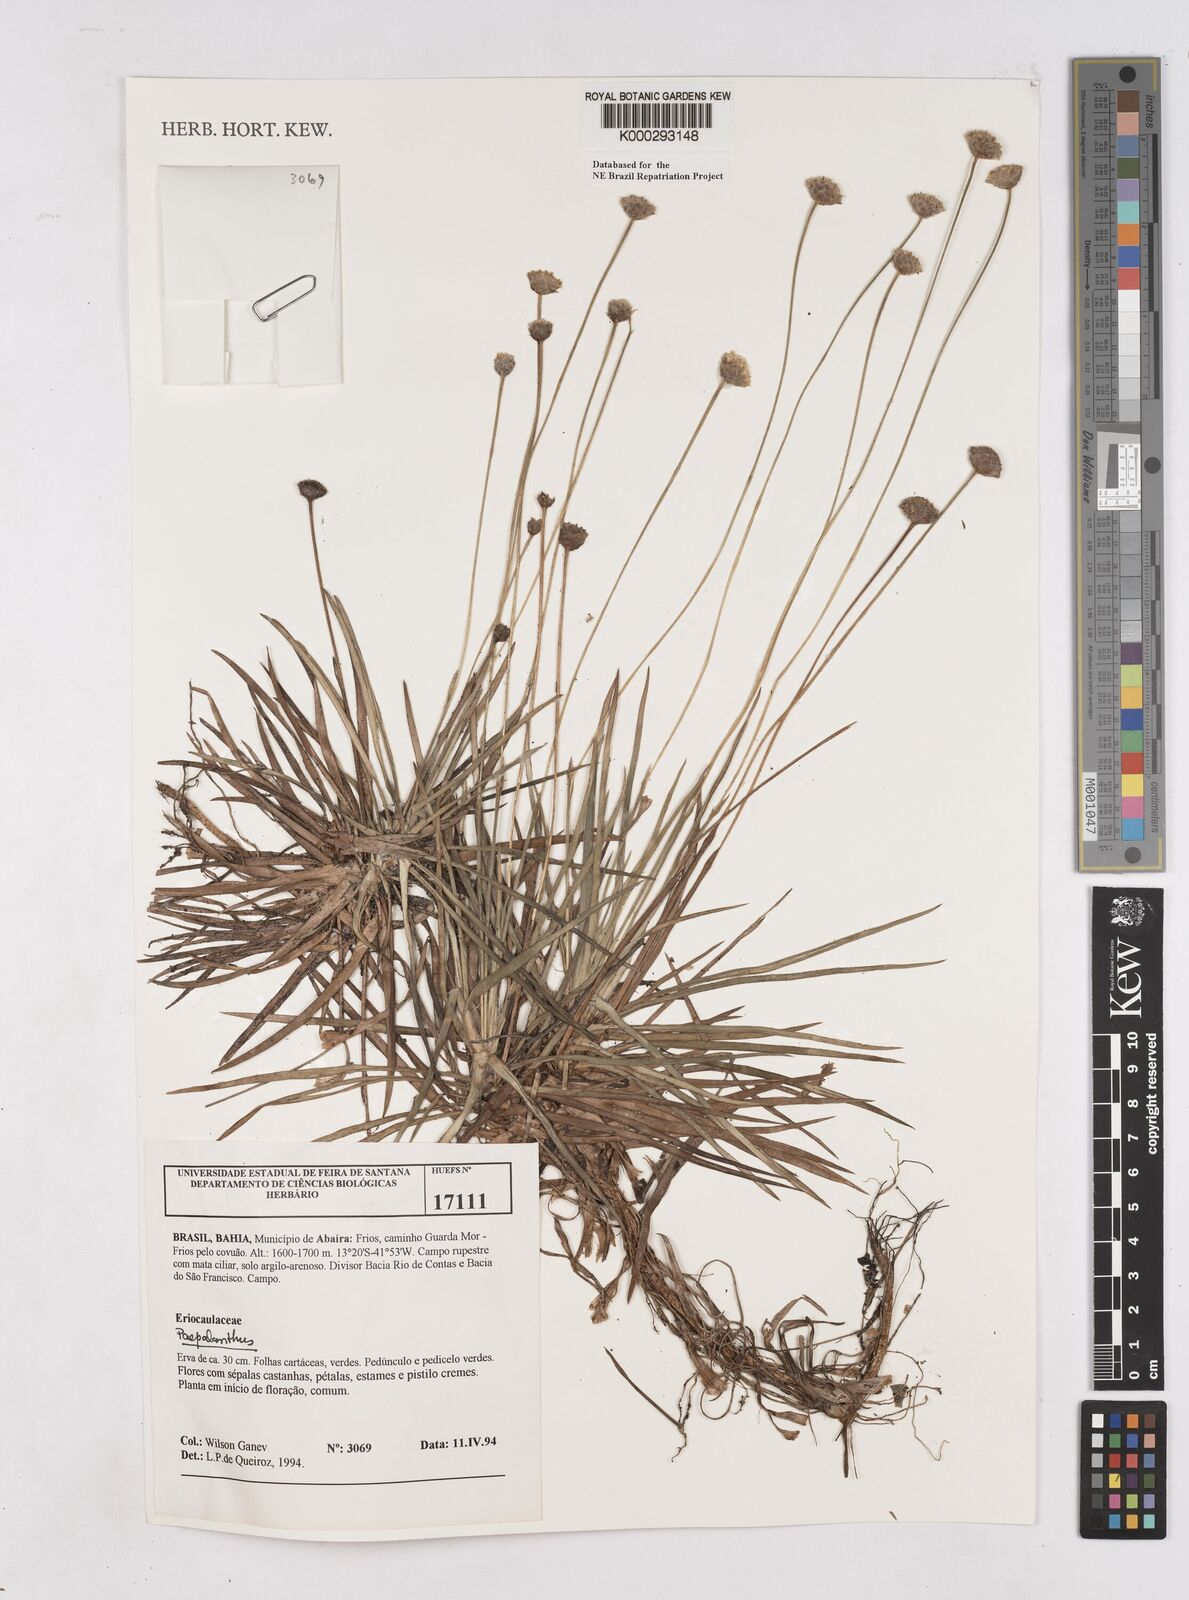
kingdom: Plantae
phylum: Tracheophyta
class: Liliopsida
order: Poales
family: Eriocaulaceae
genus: Paepalanthus
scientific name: Paepalanthus
